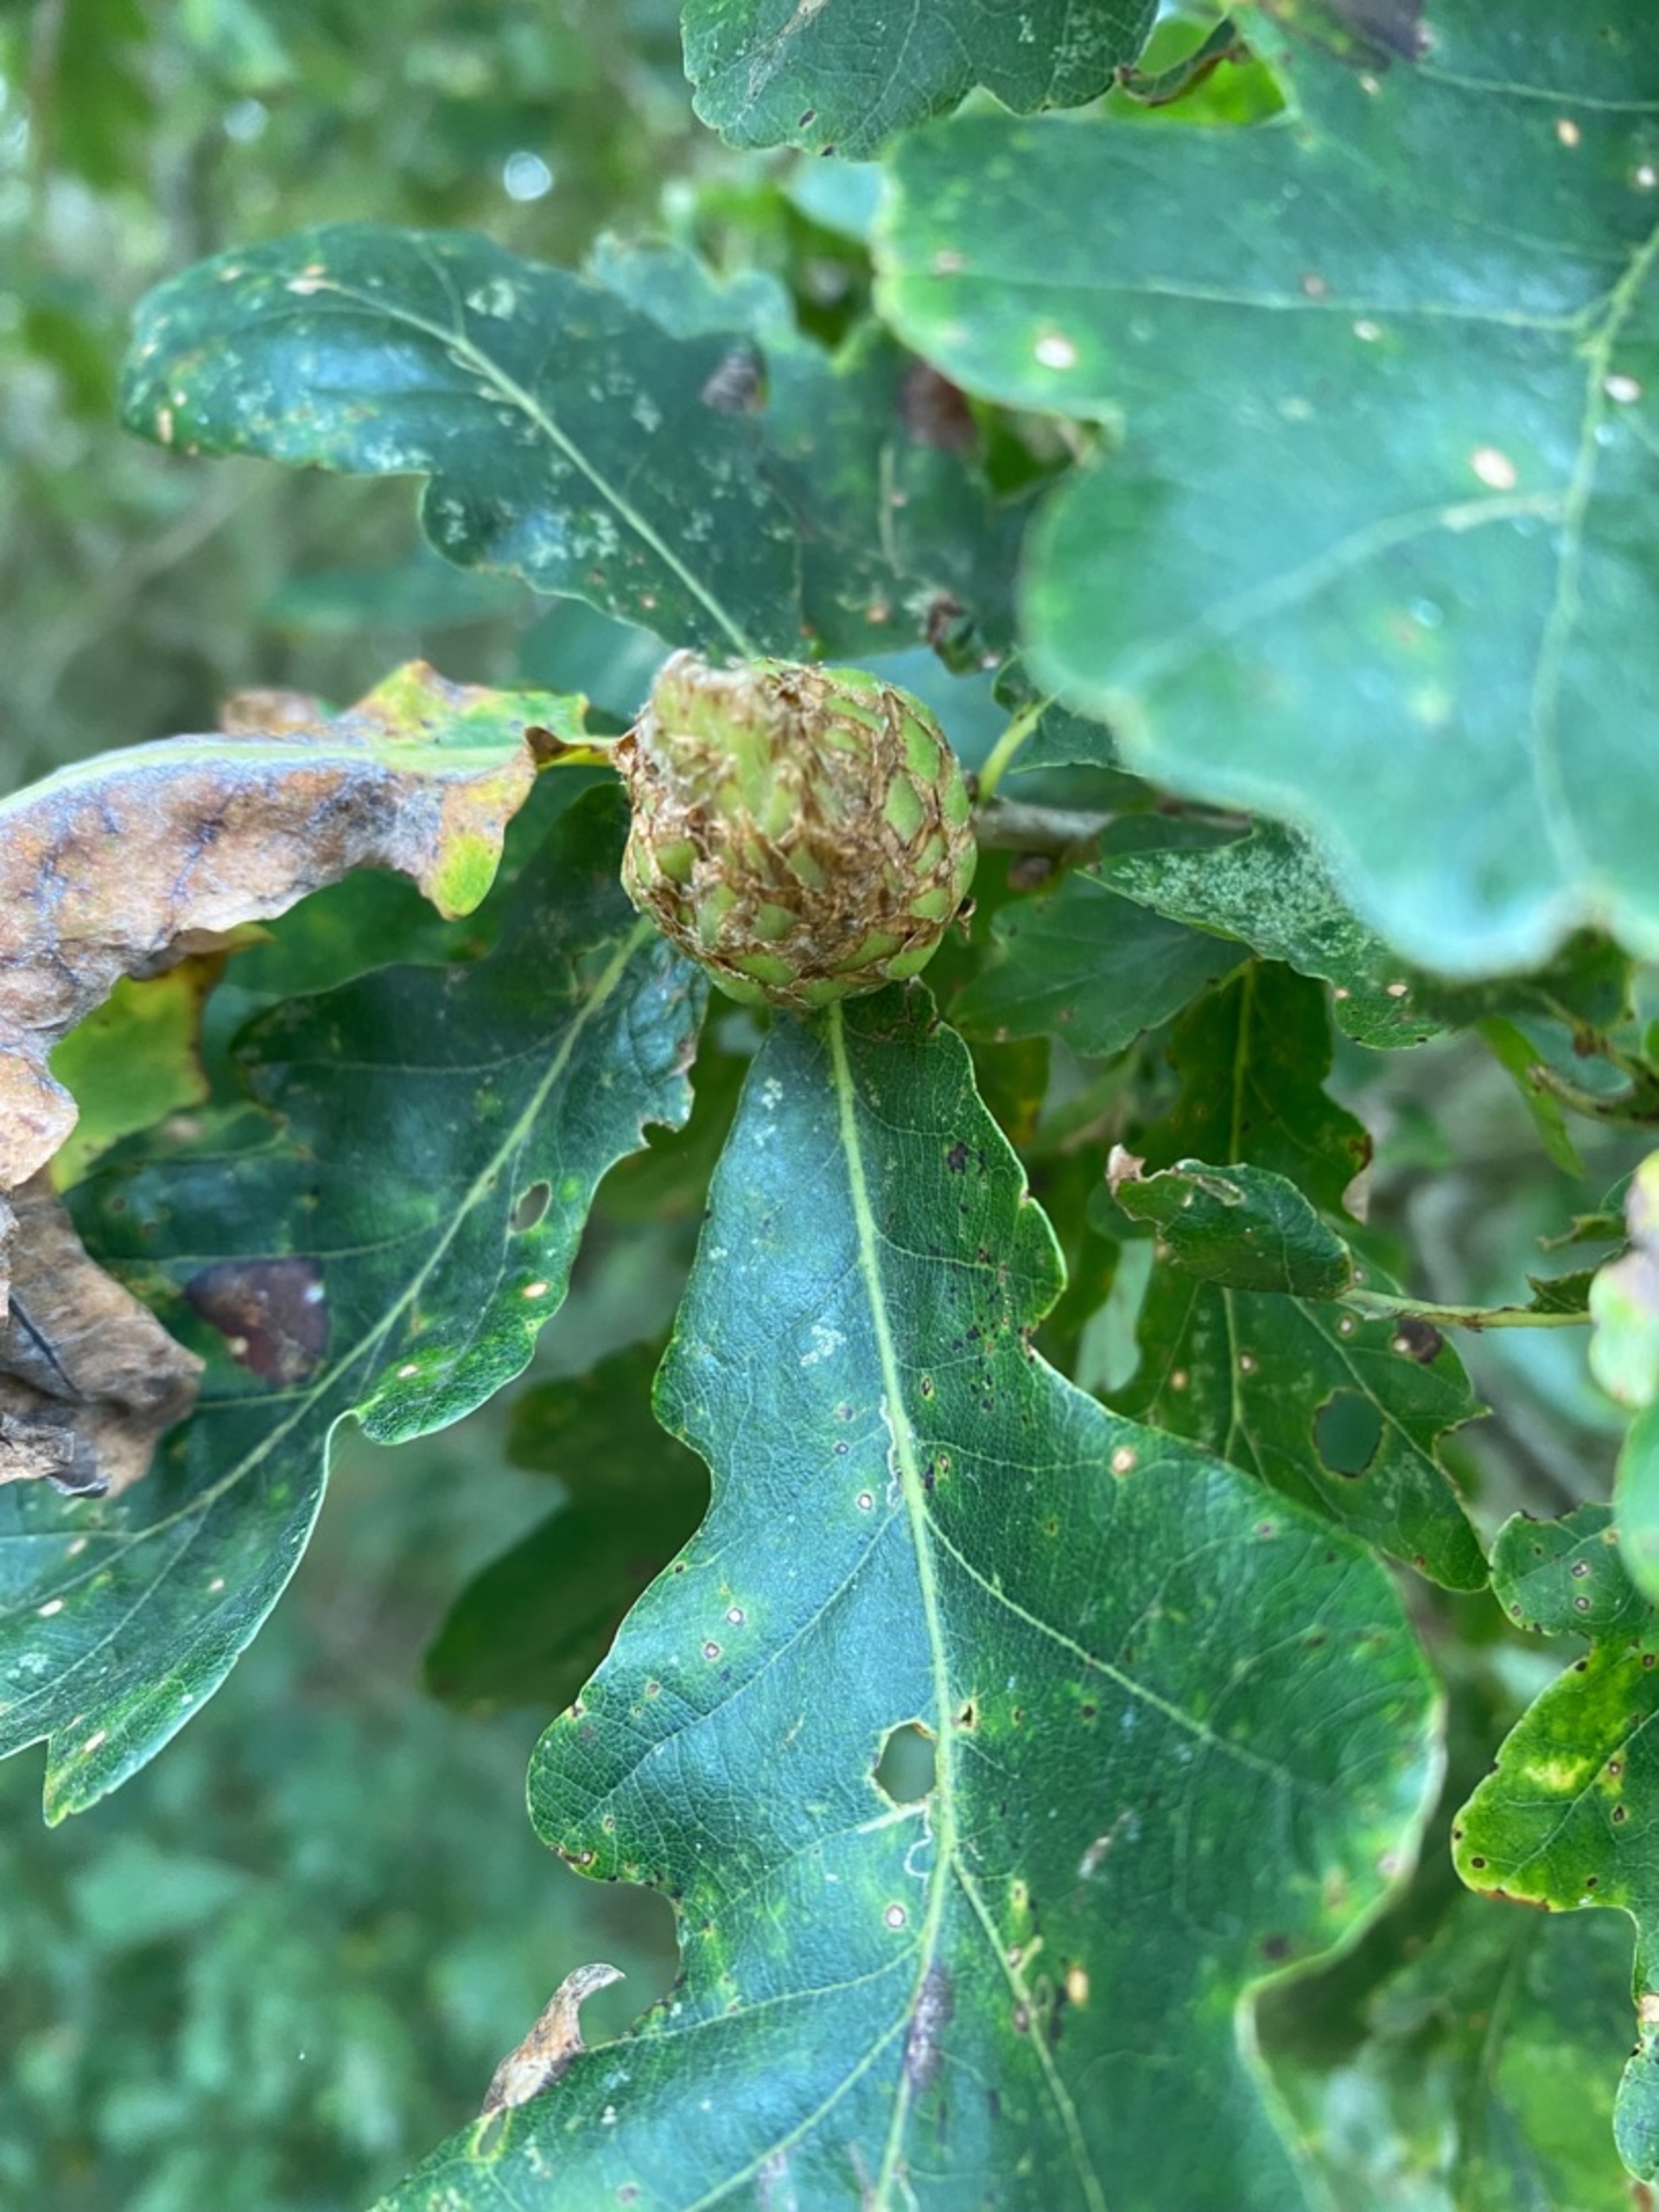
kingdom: Animalia
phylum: Arthropoda
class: Insecta
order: Hymenoptera
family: Cynipidae
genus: Andricus
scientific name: Andricus foecundatrix
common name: Artiskokgalhveps
